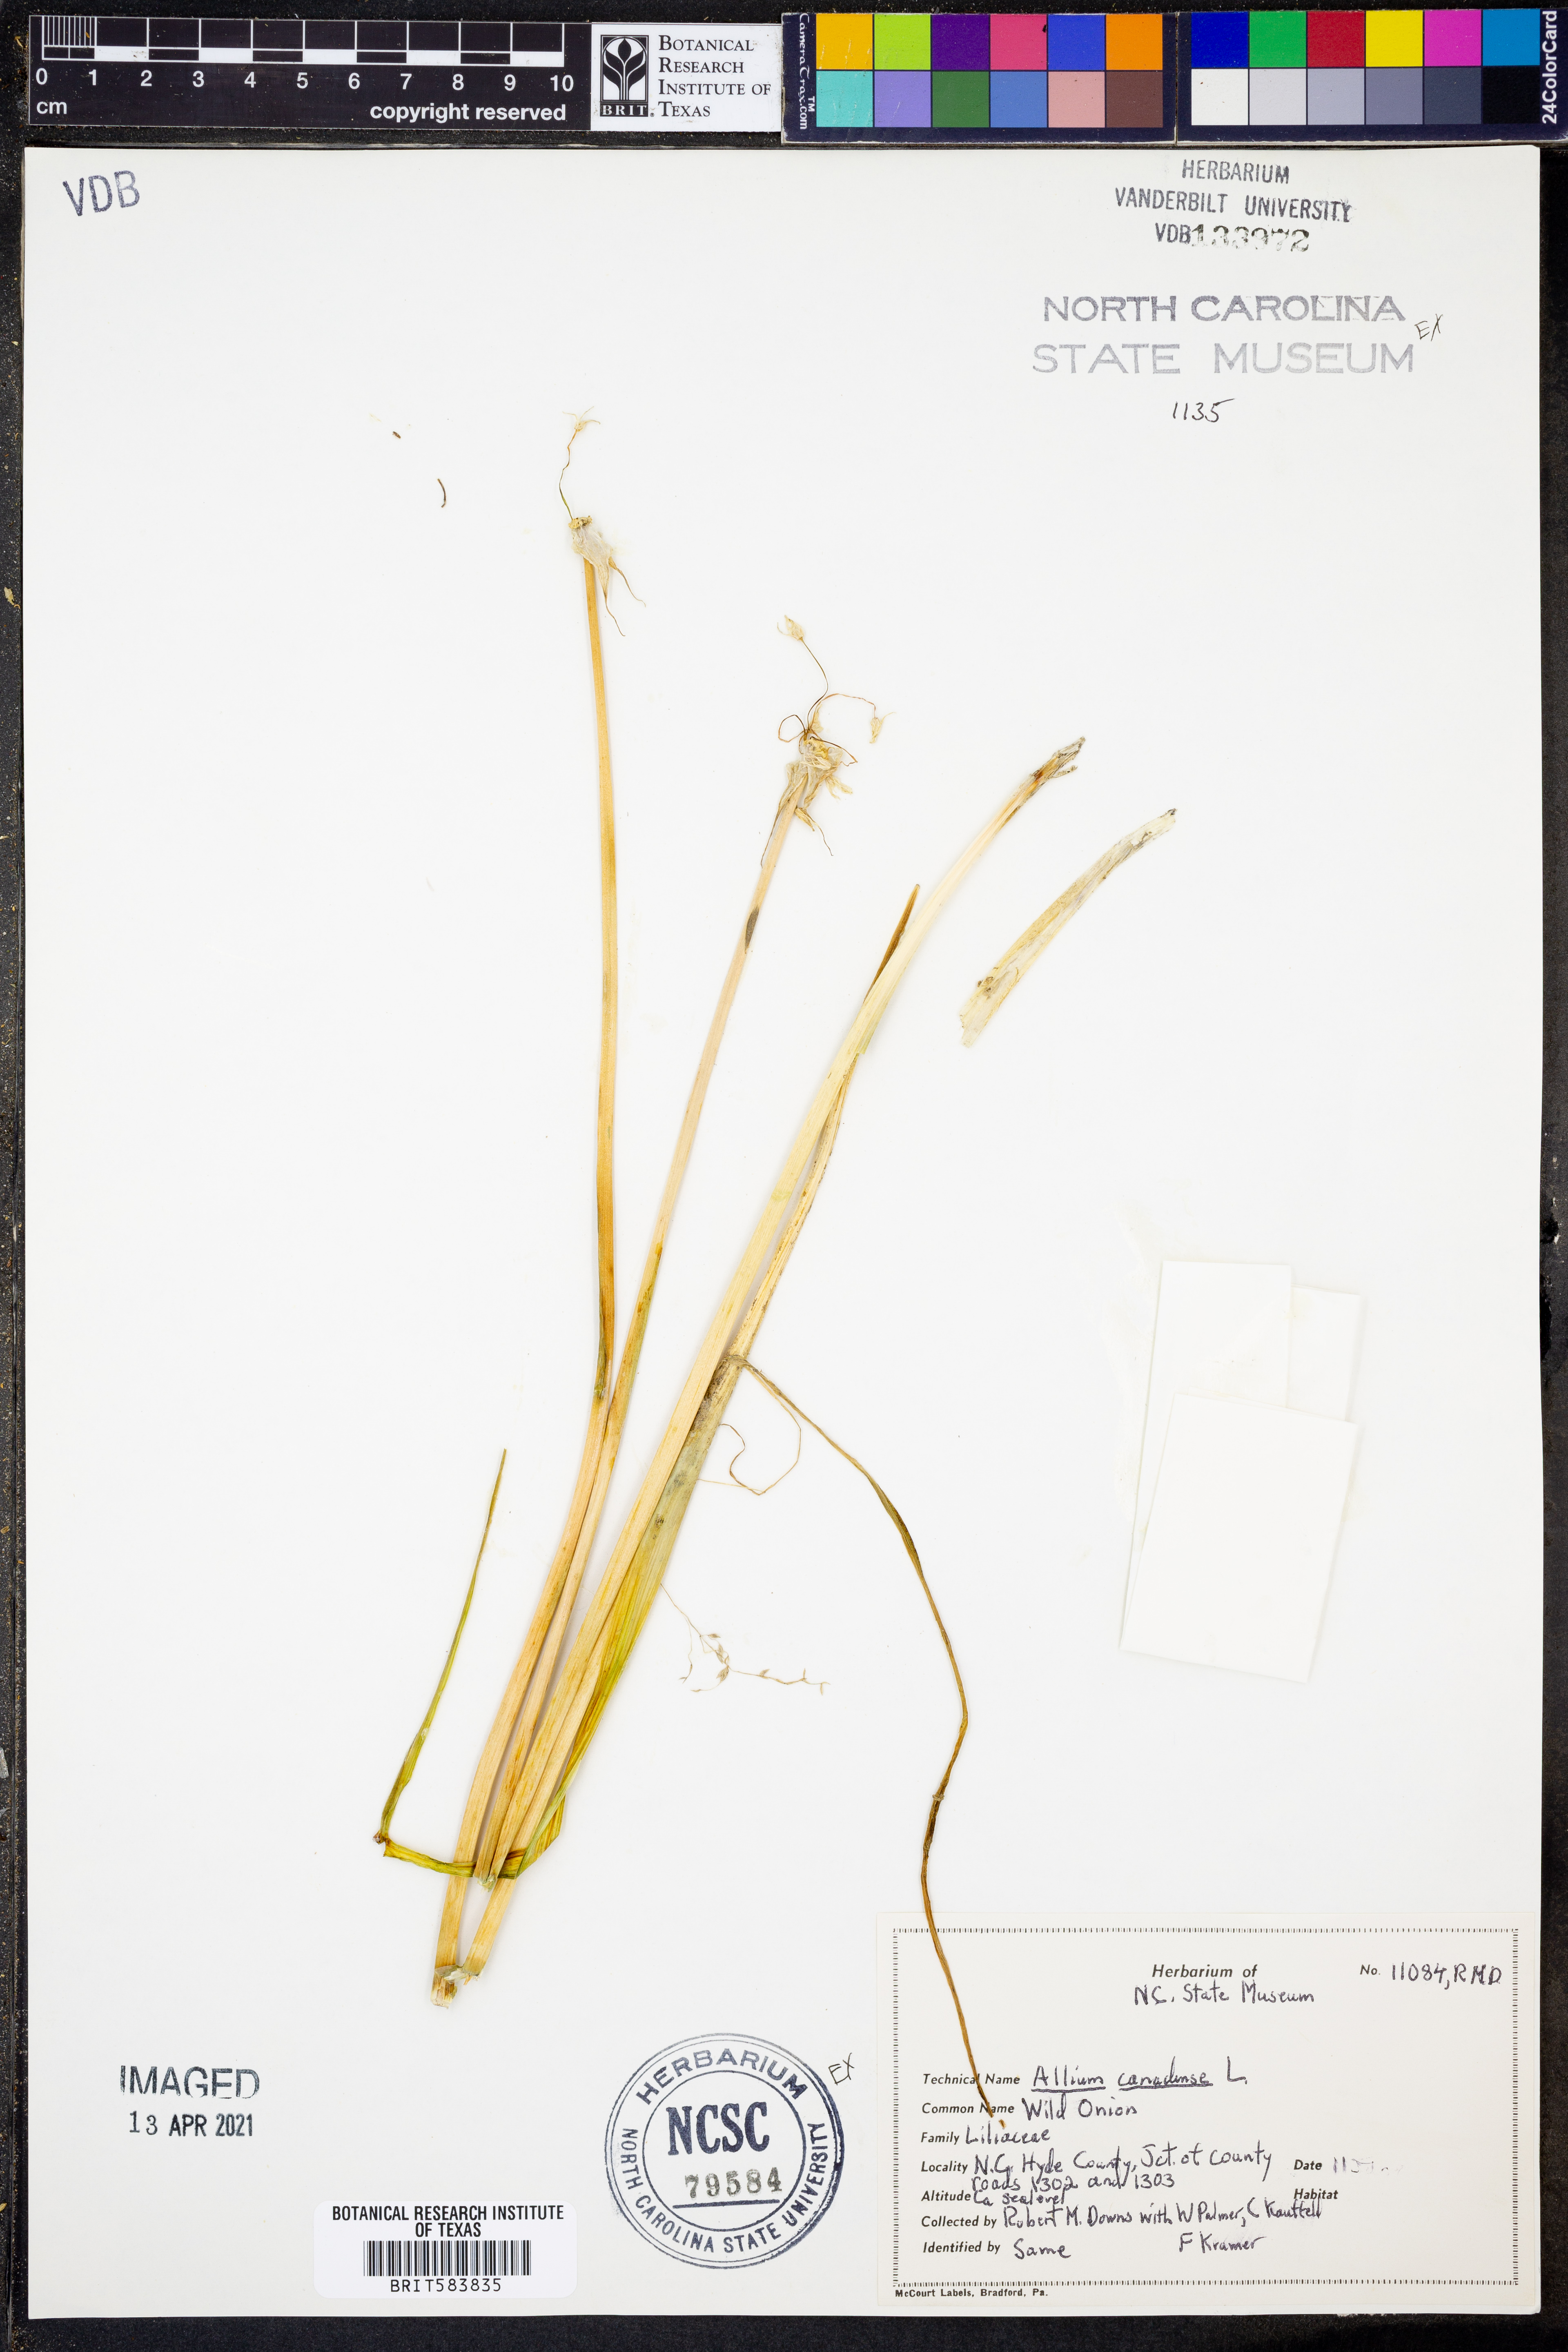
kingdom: Plantae
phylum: Tracheophyta
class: Liliopsida
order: Asparagales
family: Amaryllidaceae
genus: Allium
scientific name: Allium canadense
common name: Meadow garlic
